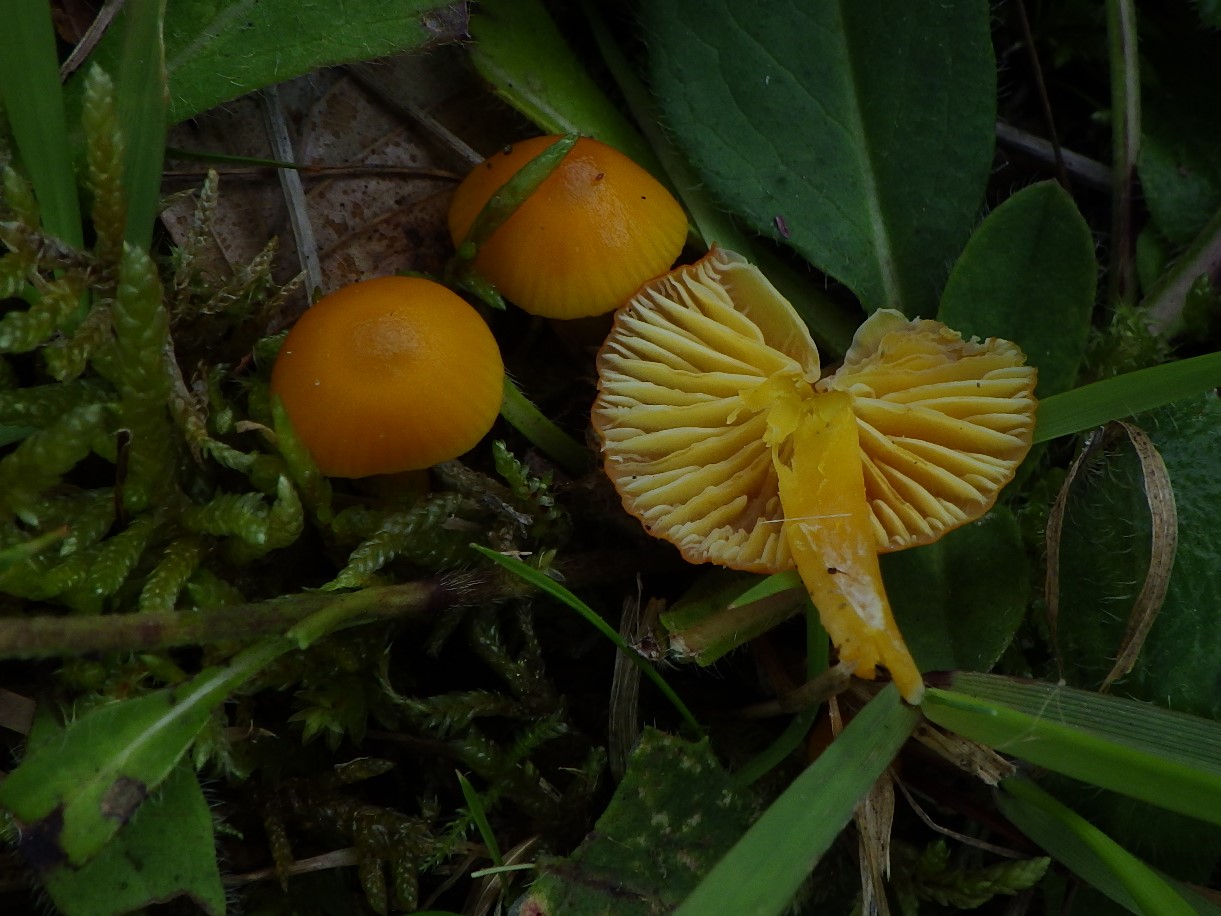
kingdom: Fungi
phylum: Basidiomycota
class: Agaricomycetes
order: Agaricales
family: Hygrophoraceae
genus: Hygrocybe
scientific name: Hygrocybe ceracea
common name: voksgul vokshat
